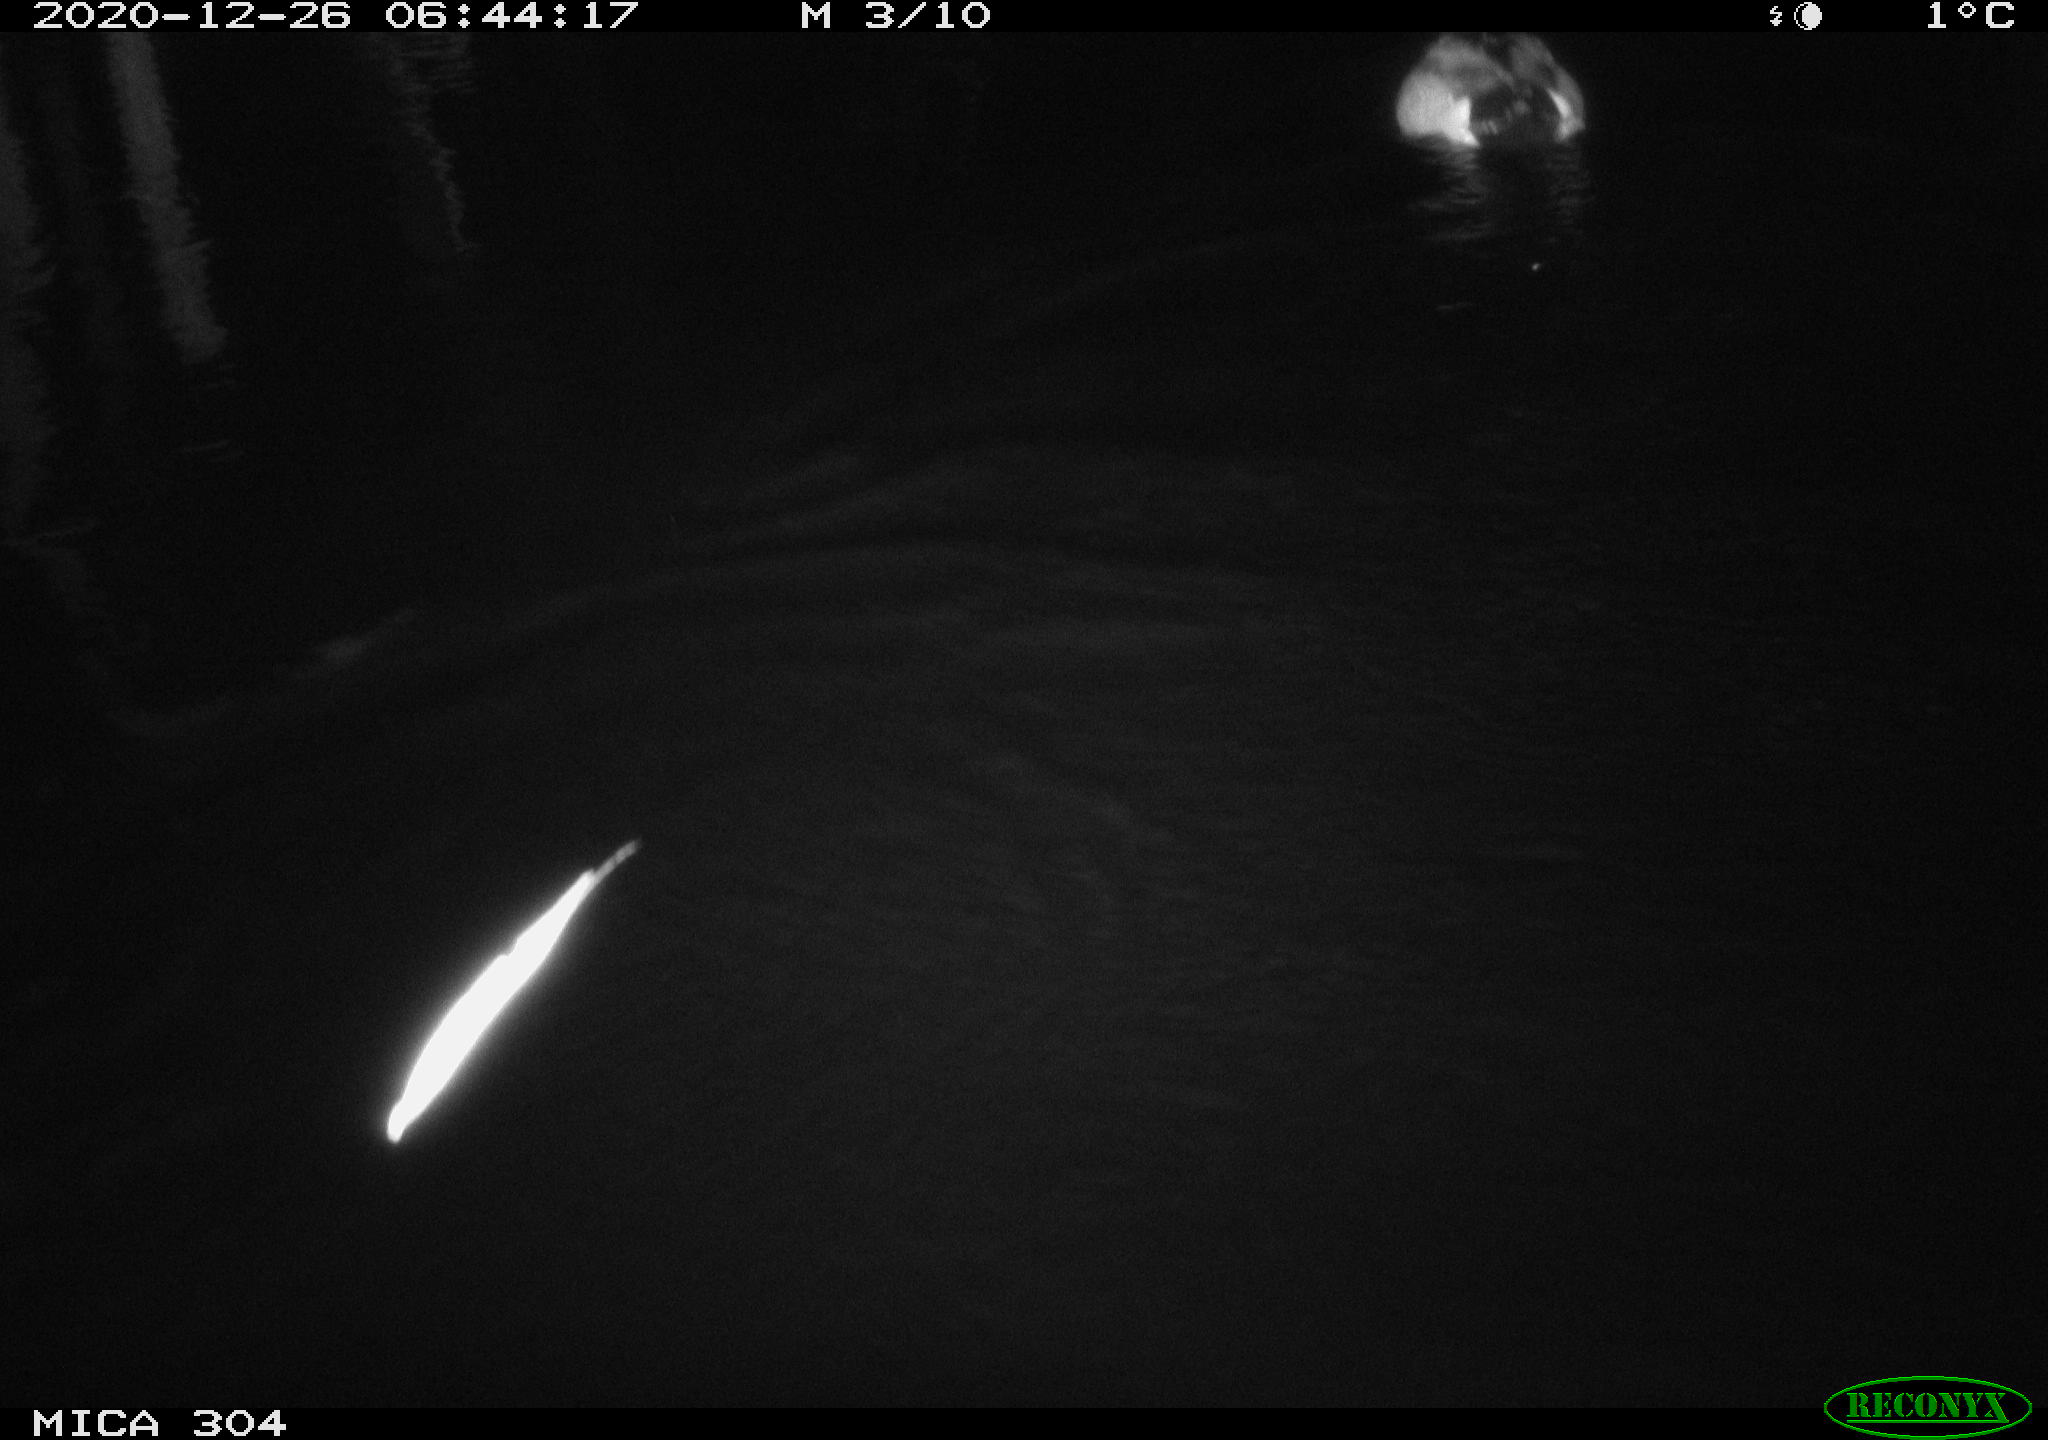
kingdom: Animalia
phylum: Chordata
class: Aves
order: Anseriformes
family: Anatidae
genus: Anas
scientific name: Anas platyrhynchos
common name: Mallard
